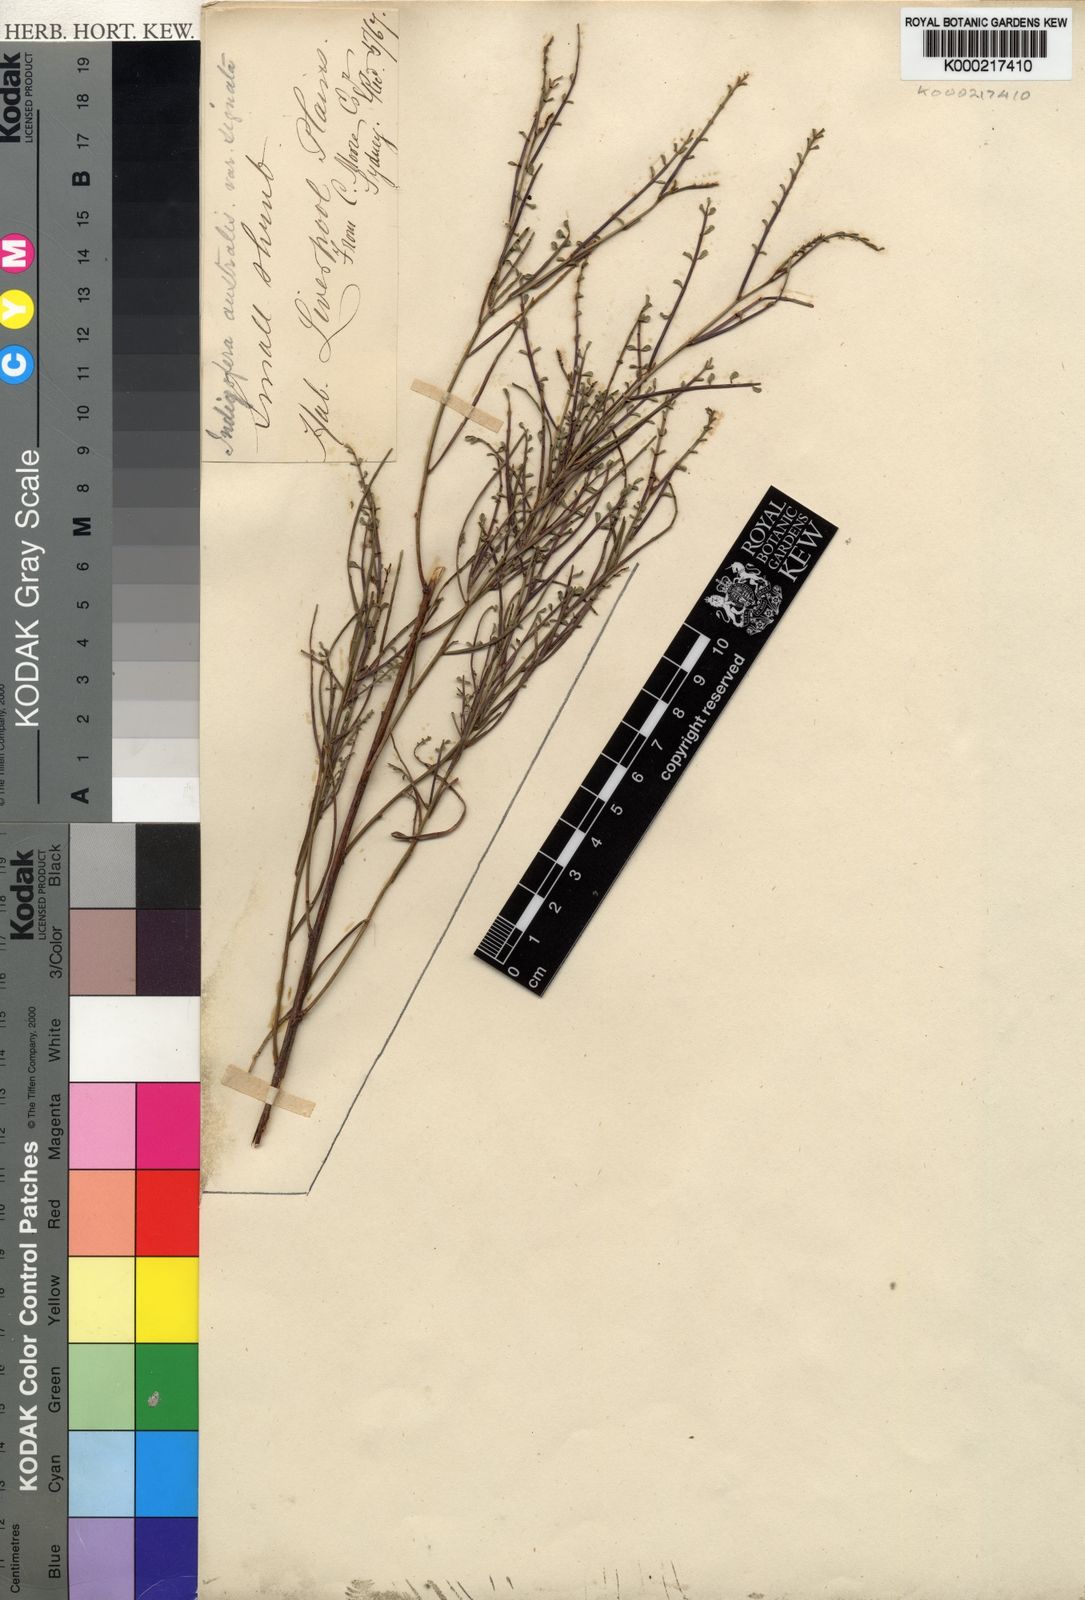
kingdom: Plantae
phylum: Tracheophyta
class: Magnoliopsida
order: Fabales
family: Fabaceae
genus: Indigofera
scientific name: Indigofera adesmiifolia
